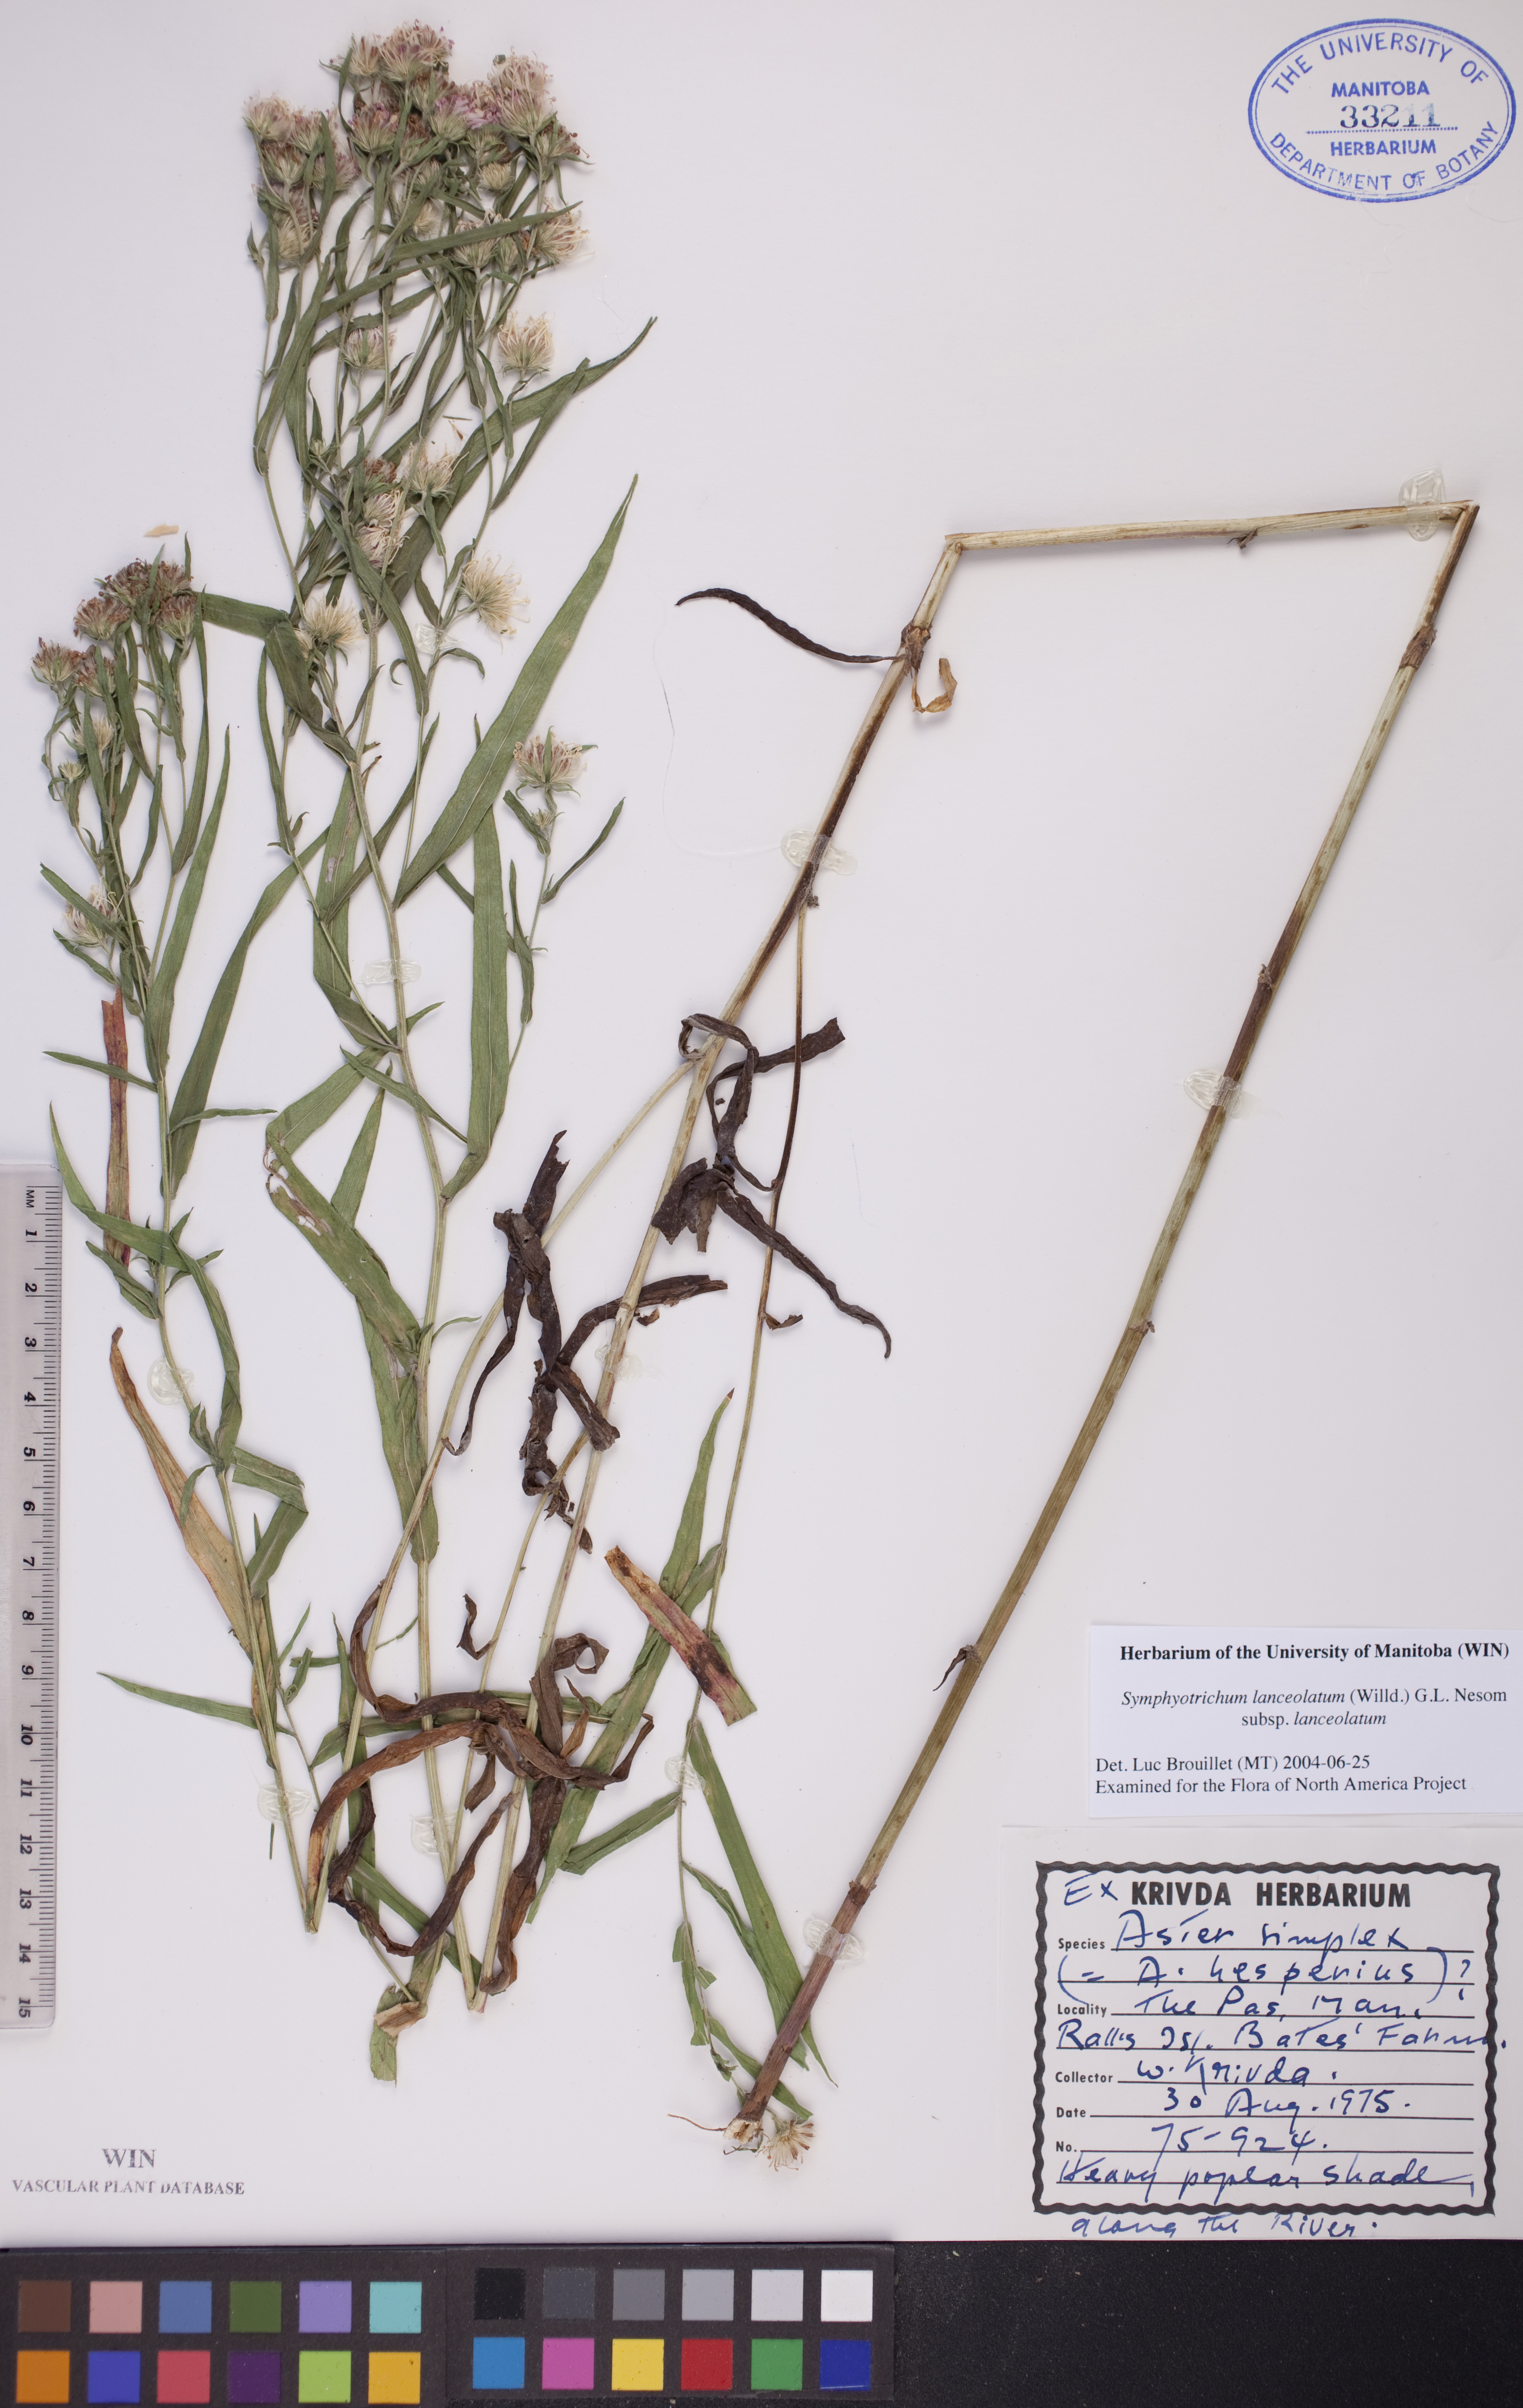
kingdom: Plantae
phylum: Tracheophyta
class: Magnoliopsida
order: Asterales
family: Asteraceae
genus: Symphyotrichum
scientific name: Symphyotrichum lanceolatum
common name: Panicled aster
